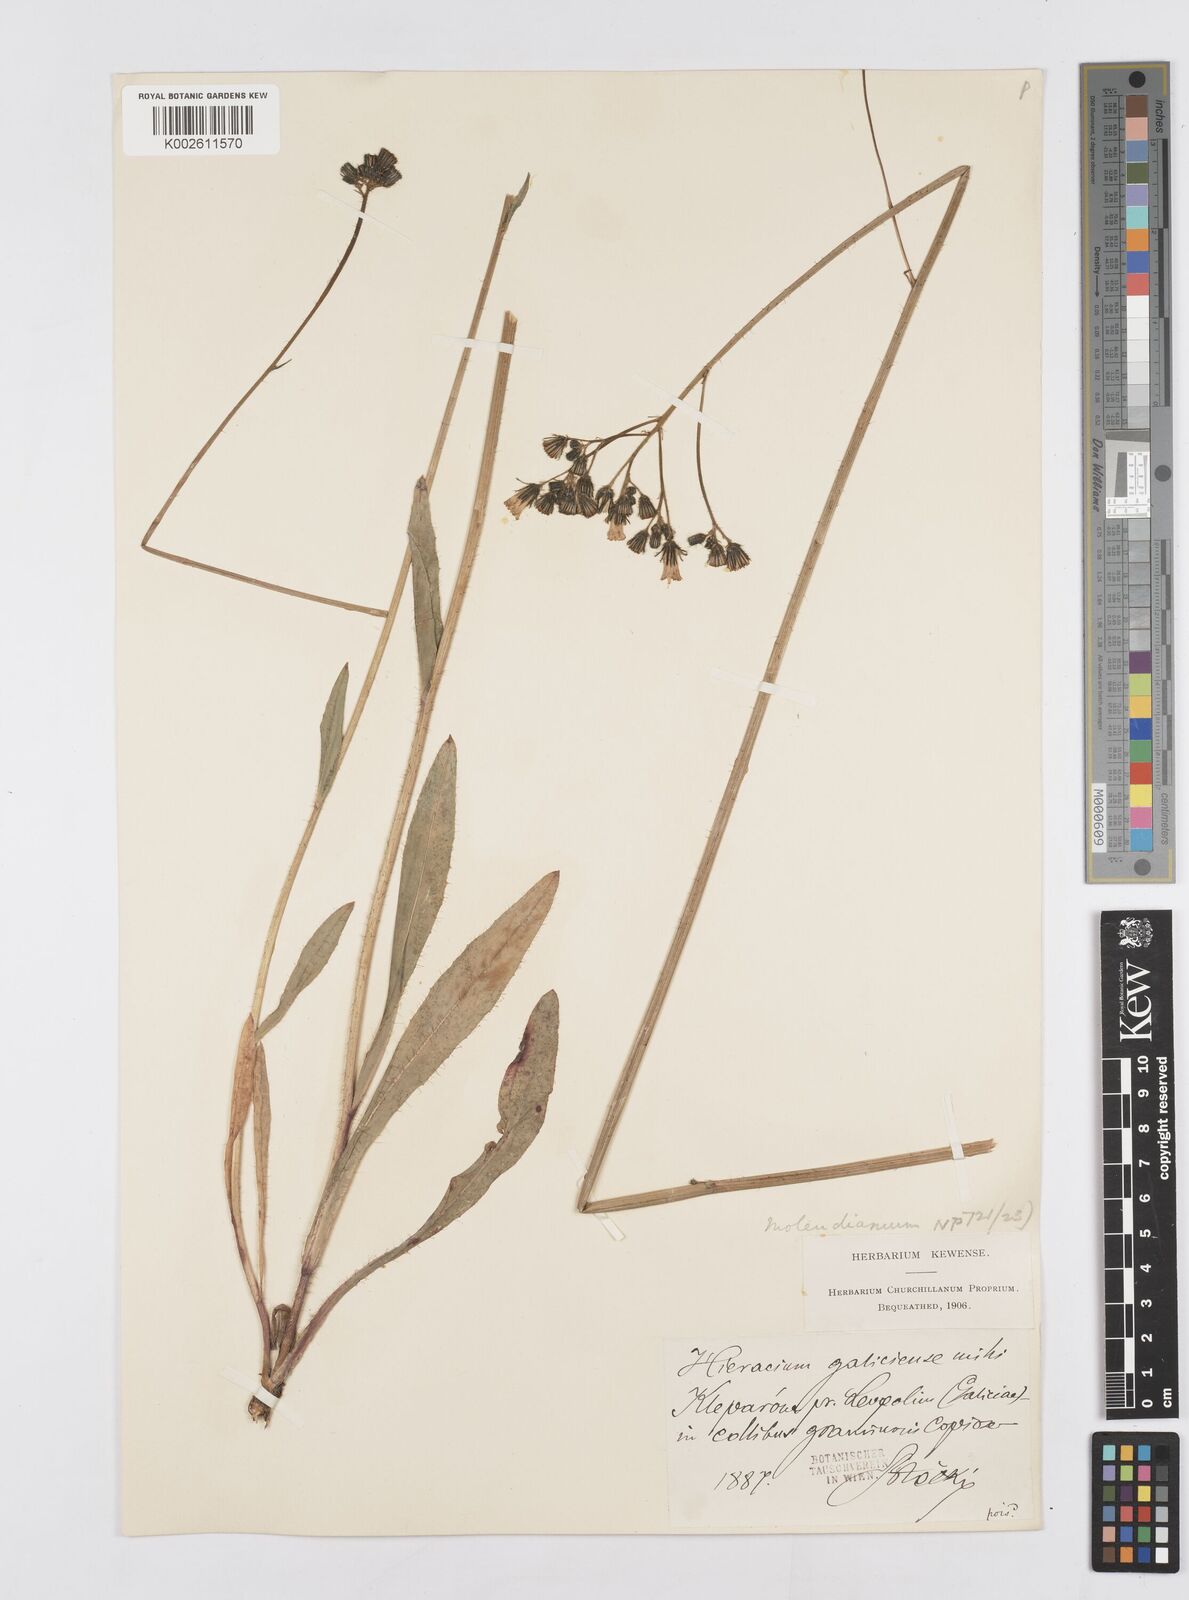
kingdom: Plantae
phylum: Tracheophyta
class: Magnoliopsida
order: Asterales
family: Asteraceae
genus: Pilosella
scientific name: Pilosella erythrochrista
